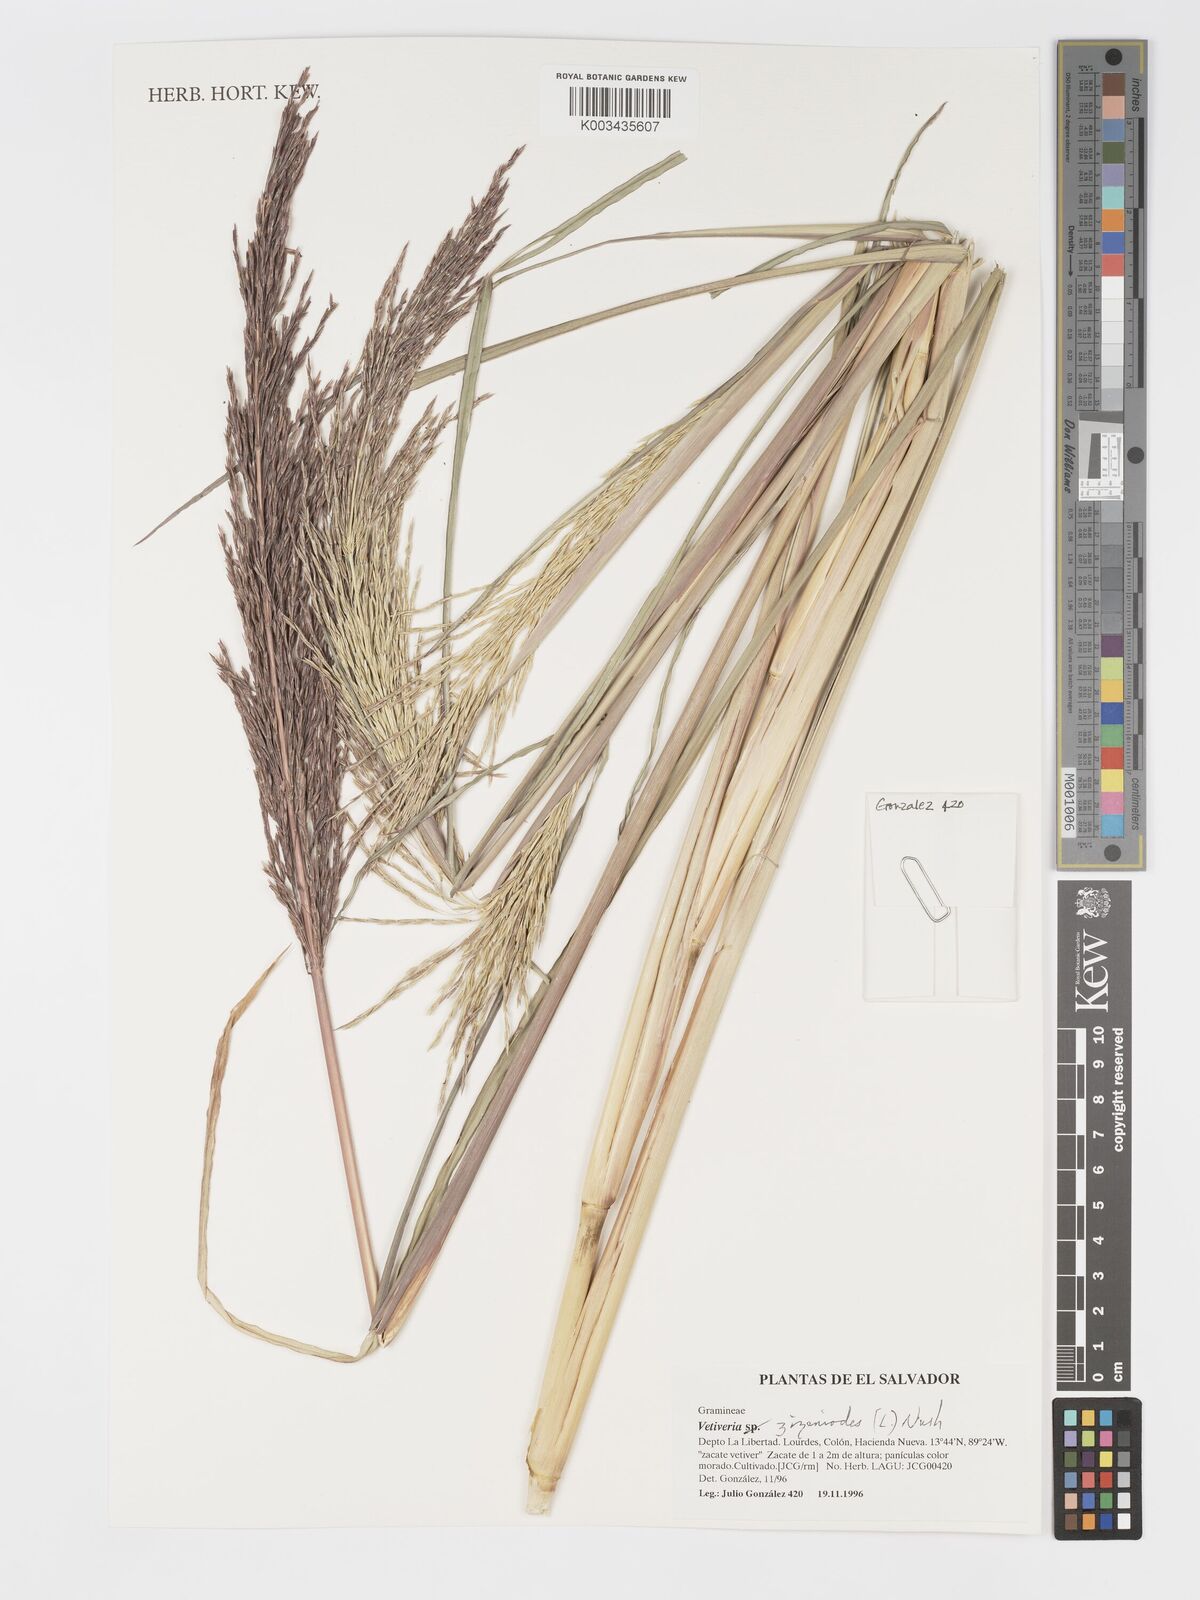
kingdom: Plantae
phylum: Tracheophyta
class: Liliopsida
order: Poales
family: Poaceae
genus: Chrysopogon
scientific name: Chrysopogon zizanioides
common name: False beardgrass
